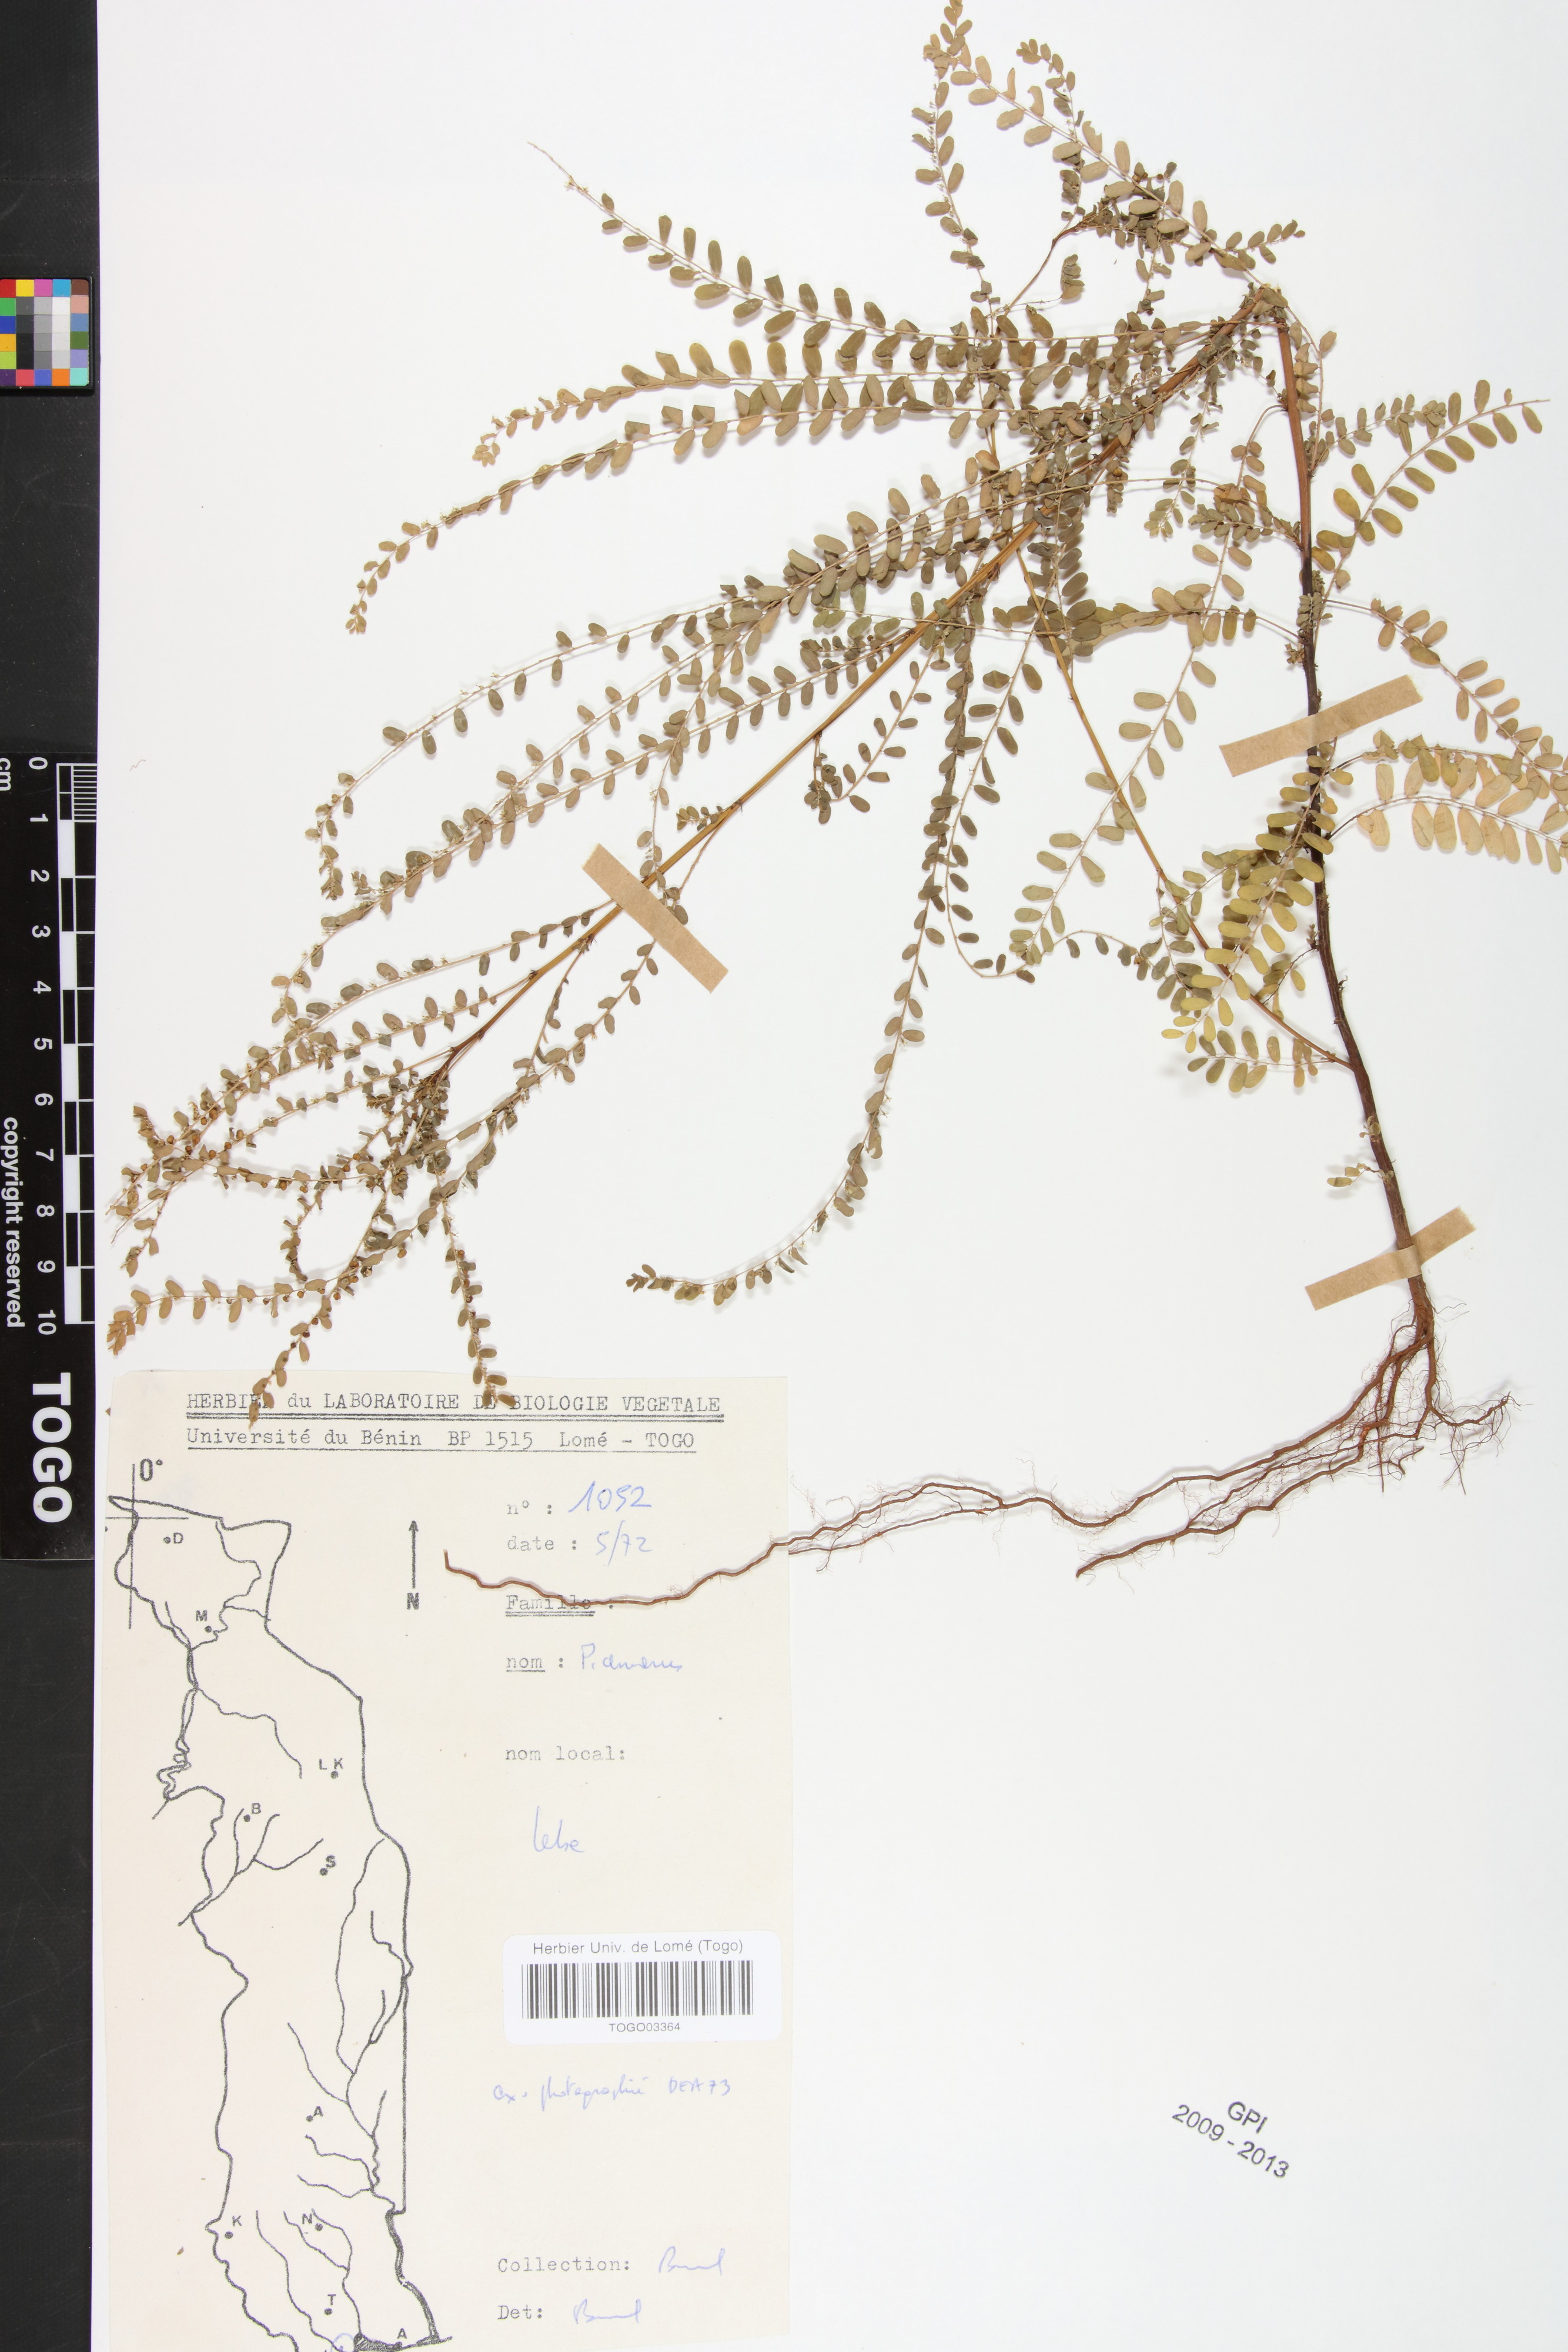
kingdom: Plantae
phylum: Tracheophyta
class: Magnoliopsida
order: Malpighiales
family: Phyllanthaceae
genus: Phyllanthus
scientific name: Phyllanthus amarus
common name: Carry me seed
